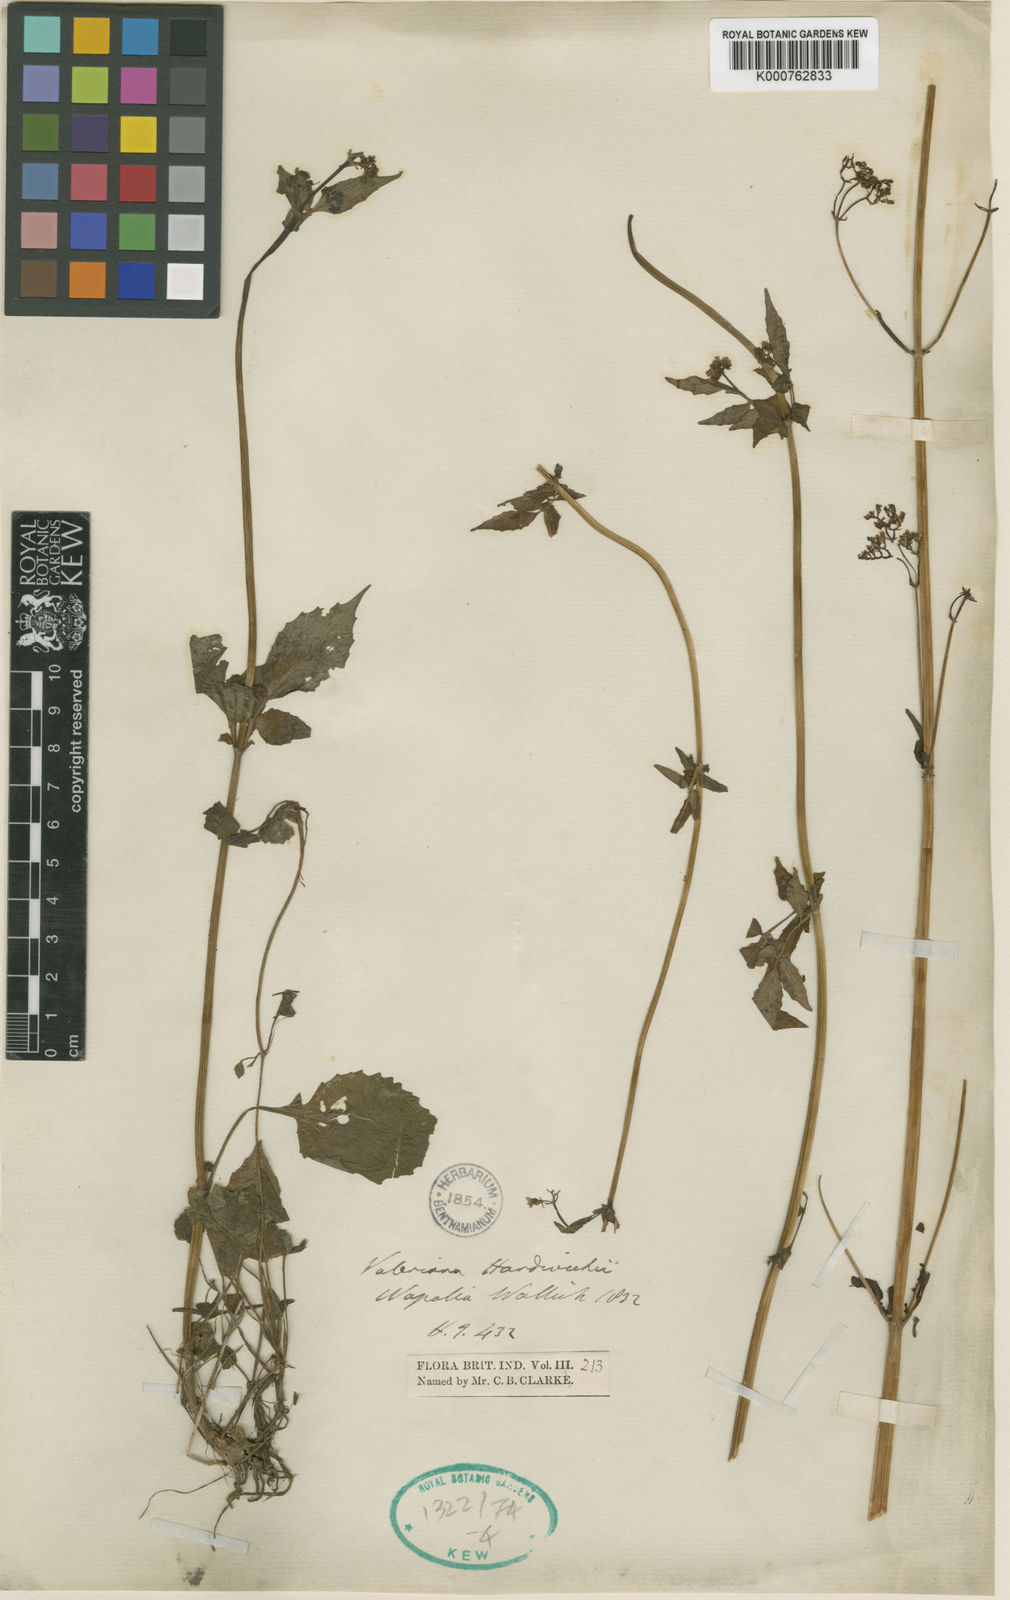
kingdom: Plantae
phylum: Tracheophyta
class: Magnoliopsida
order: Dipsacales
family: Caprifoliaceae
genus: Valeriana
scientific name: Valeriana hardwickei
